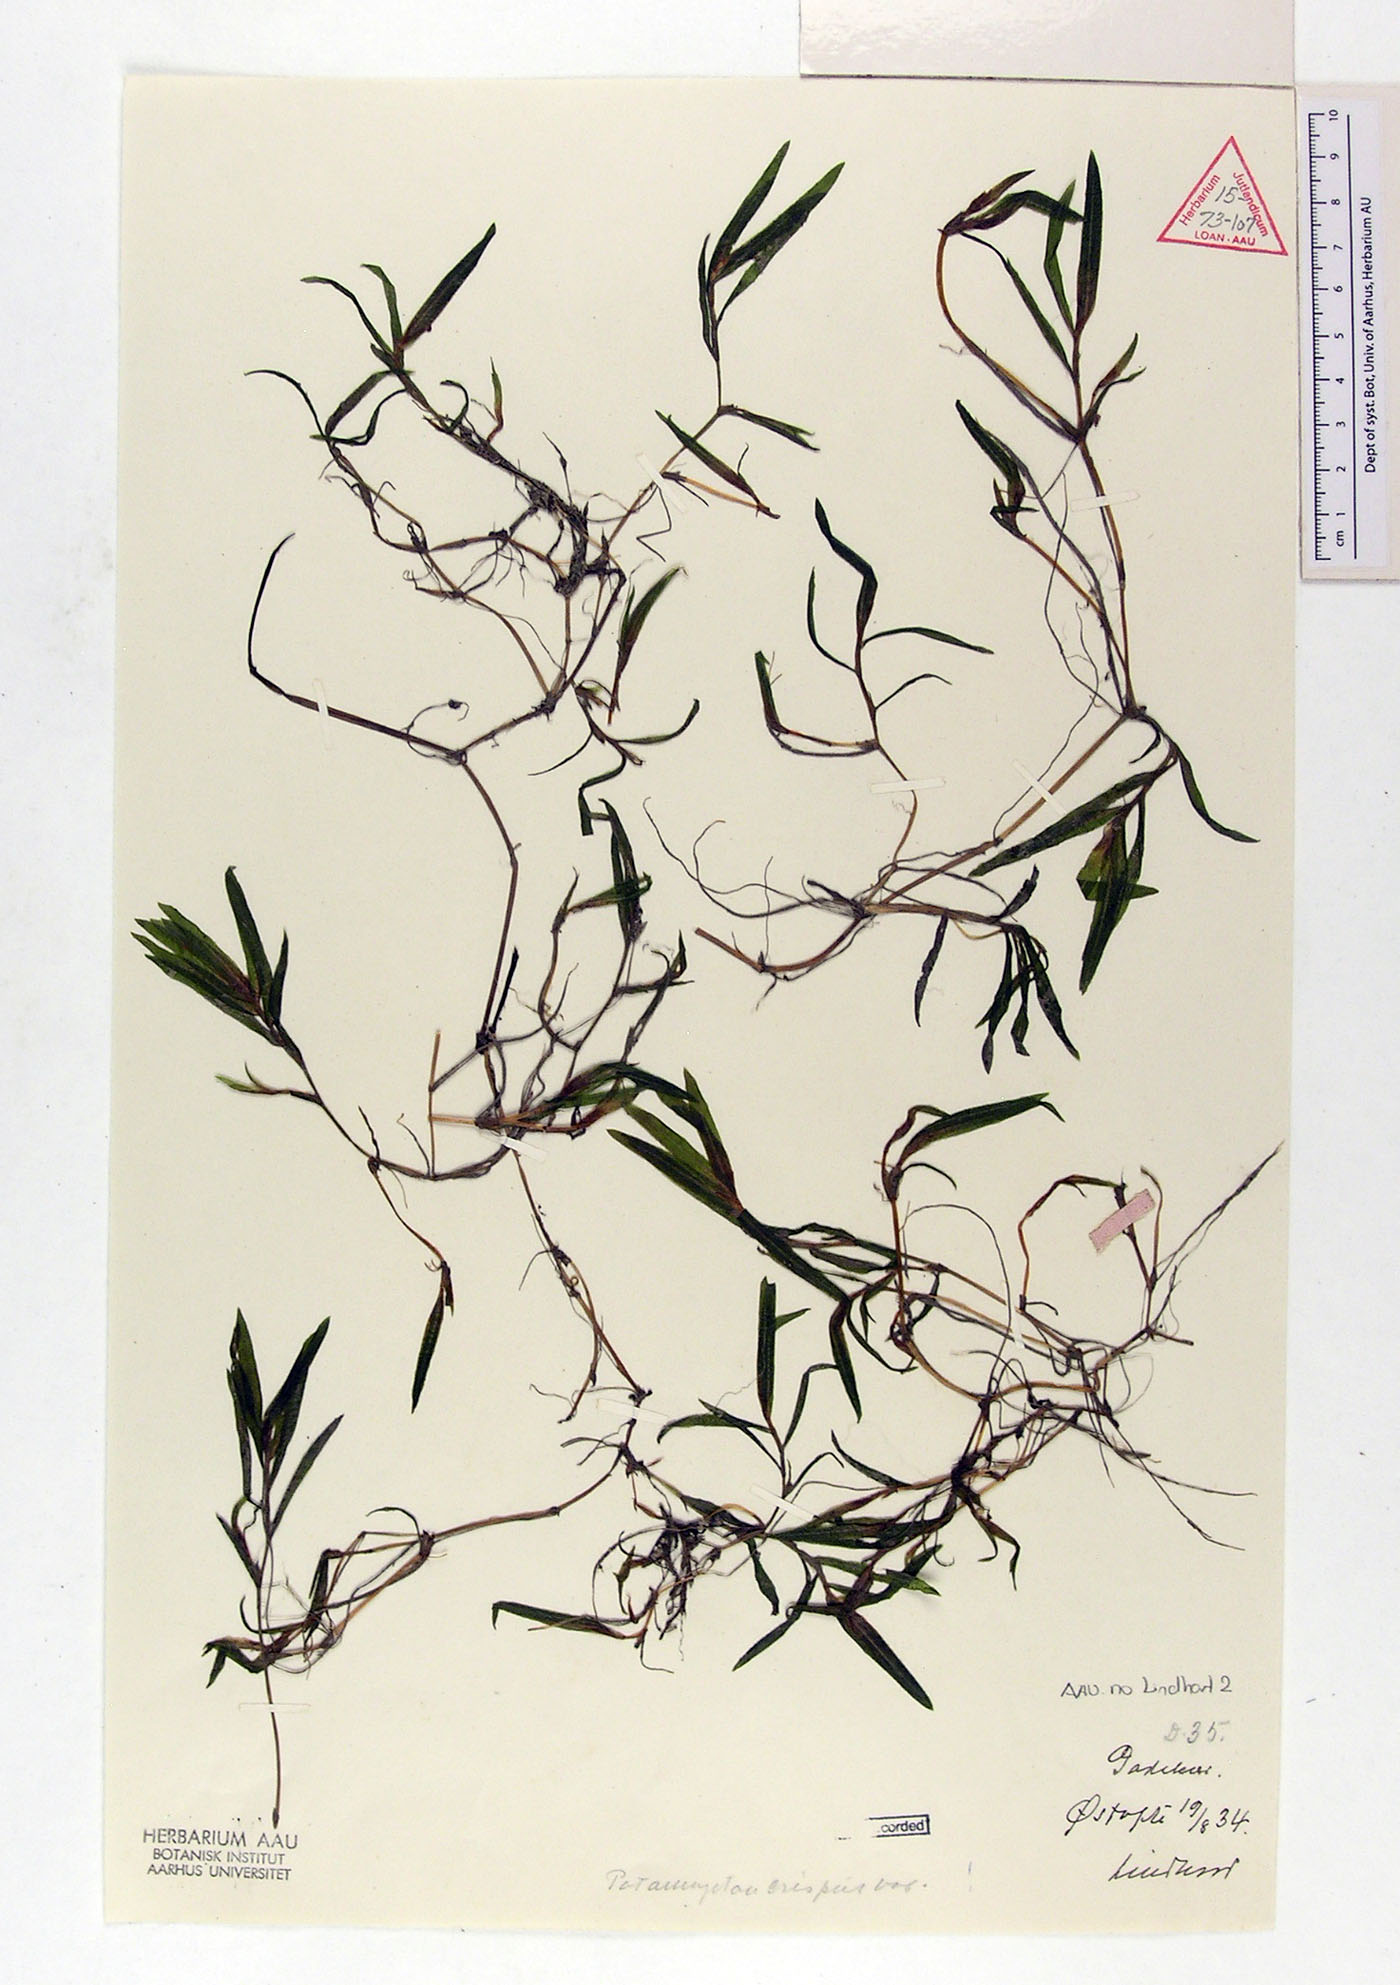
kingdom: Plantae
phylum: Tracheophyta
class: Liliopsida
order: Alismatales
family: Potamogetonaceae
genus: Potamogeton
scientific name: Potamogeton crispus
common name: Curled pondweed
